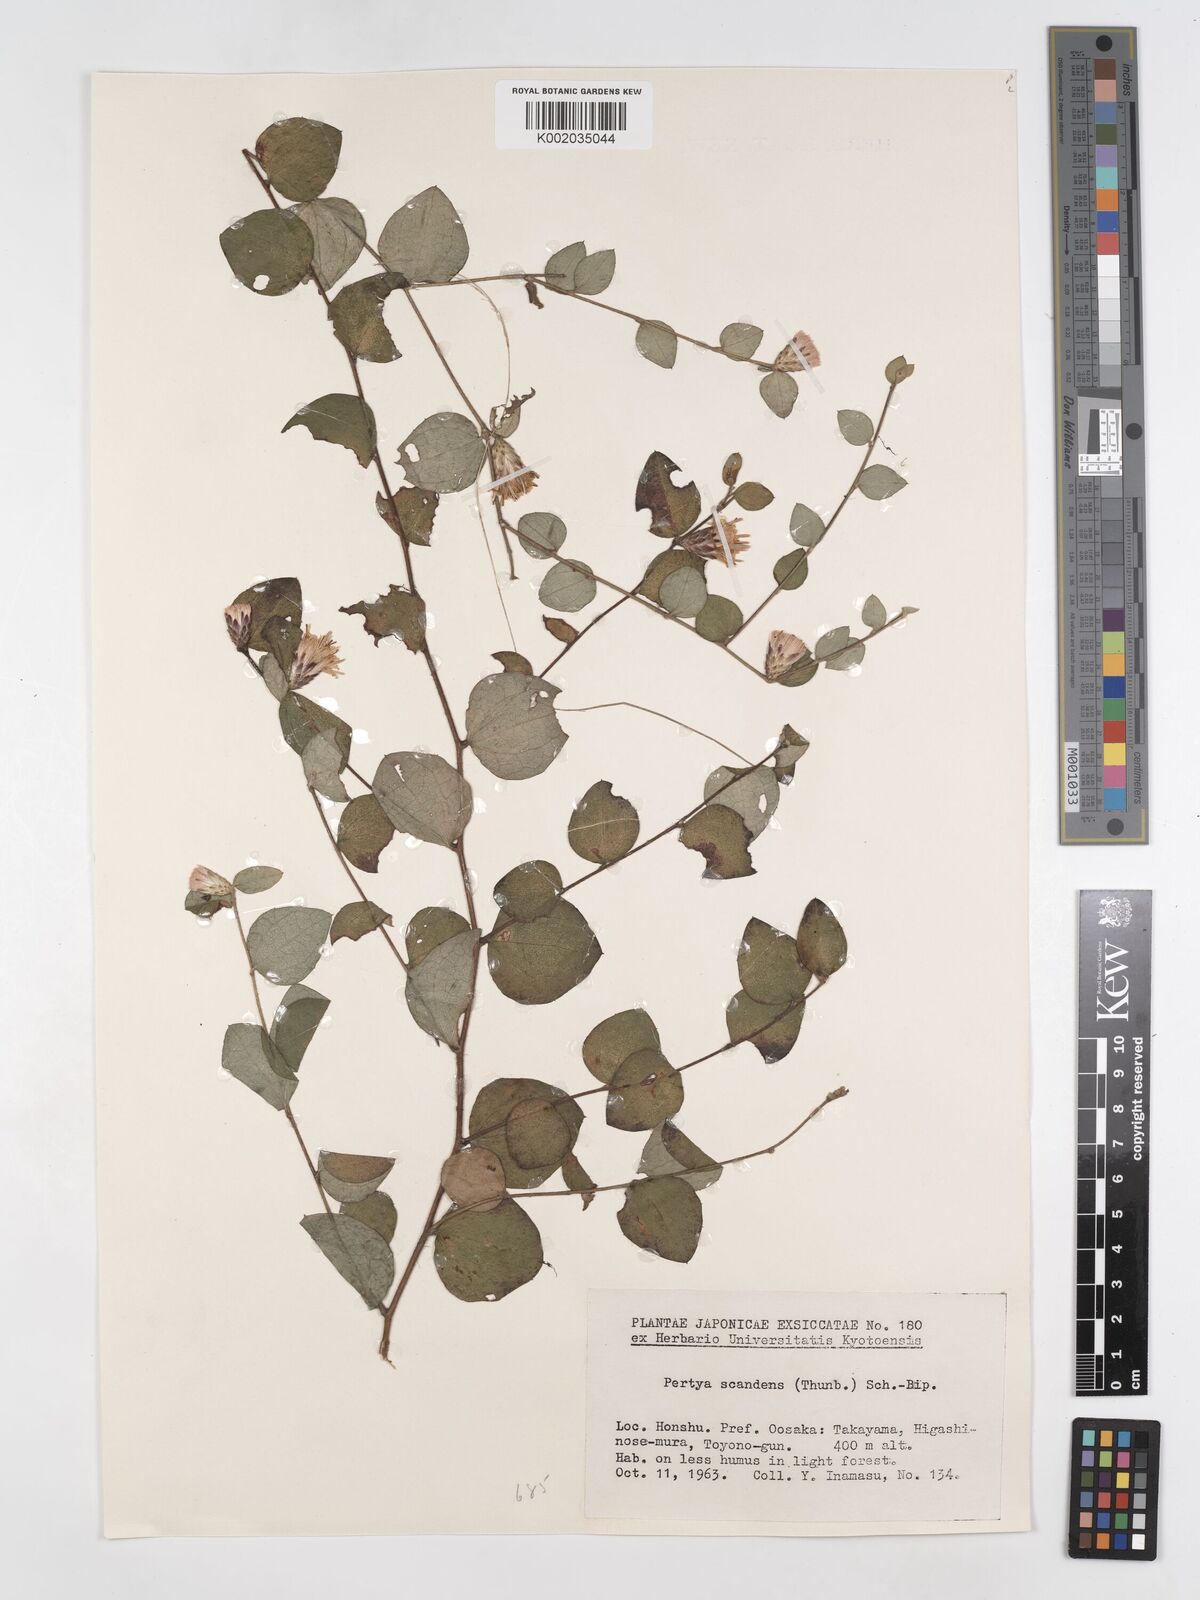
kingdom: Plantae
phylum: Tracheophyta
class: Magnoliopsida
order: Asterales
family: Asteraceae
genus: Pertya
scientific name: Pertya scandens
